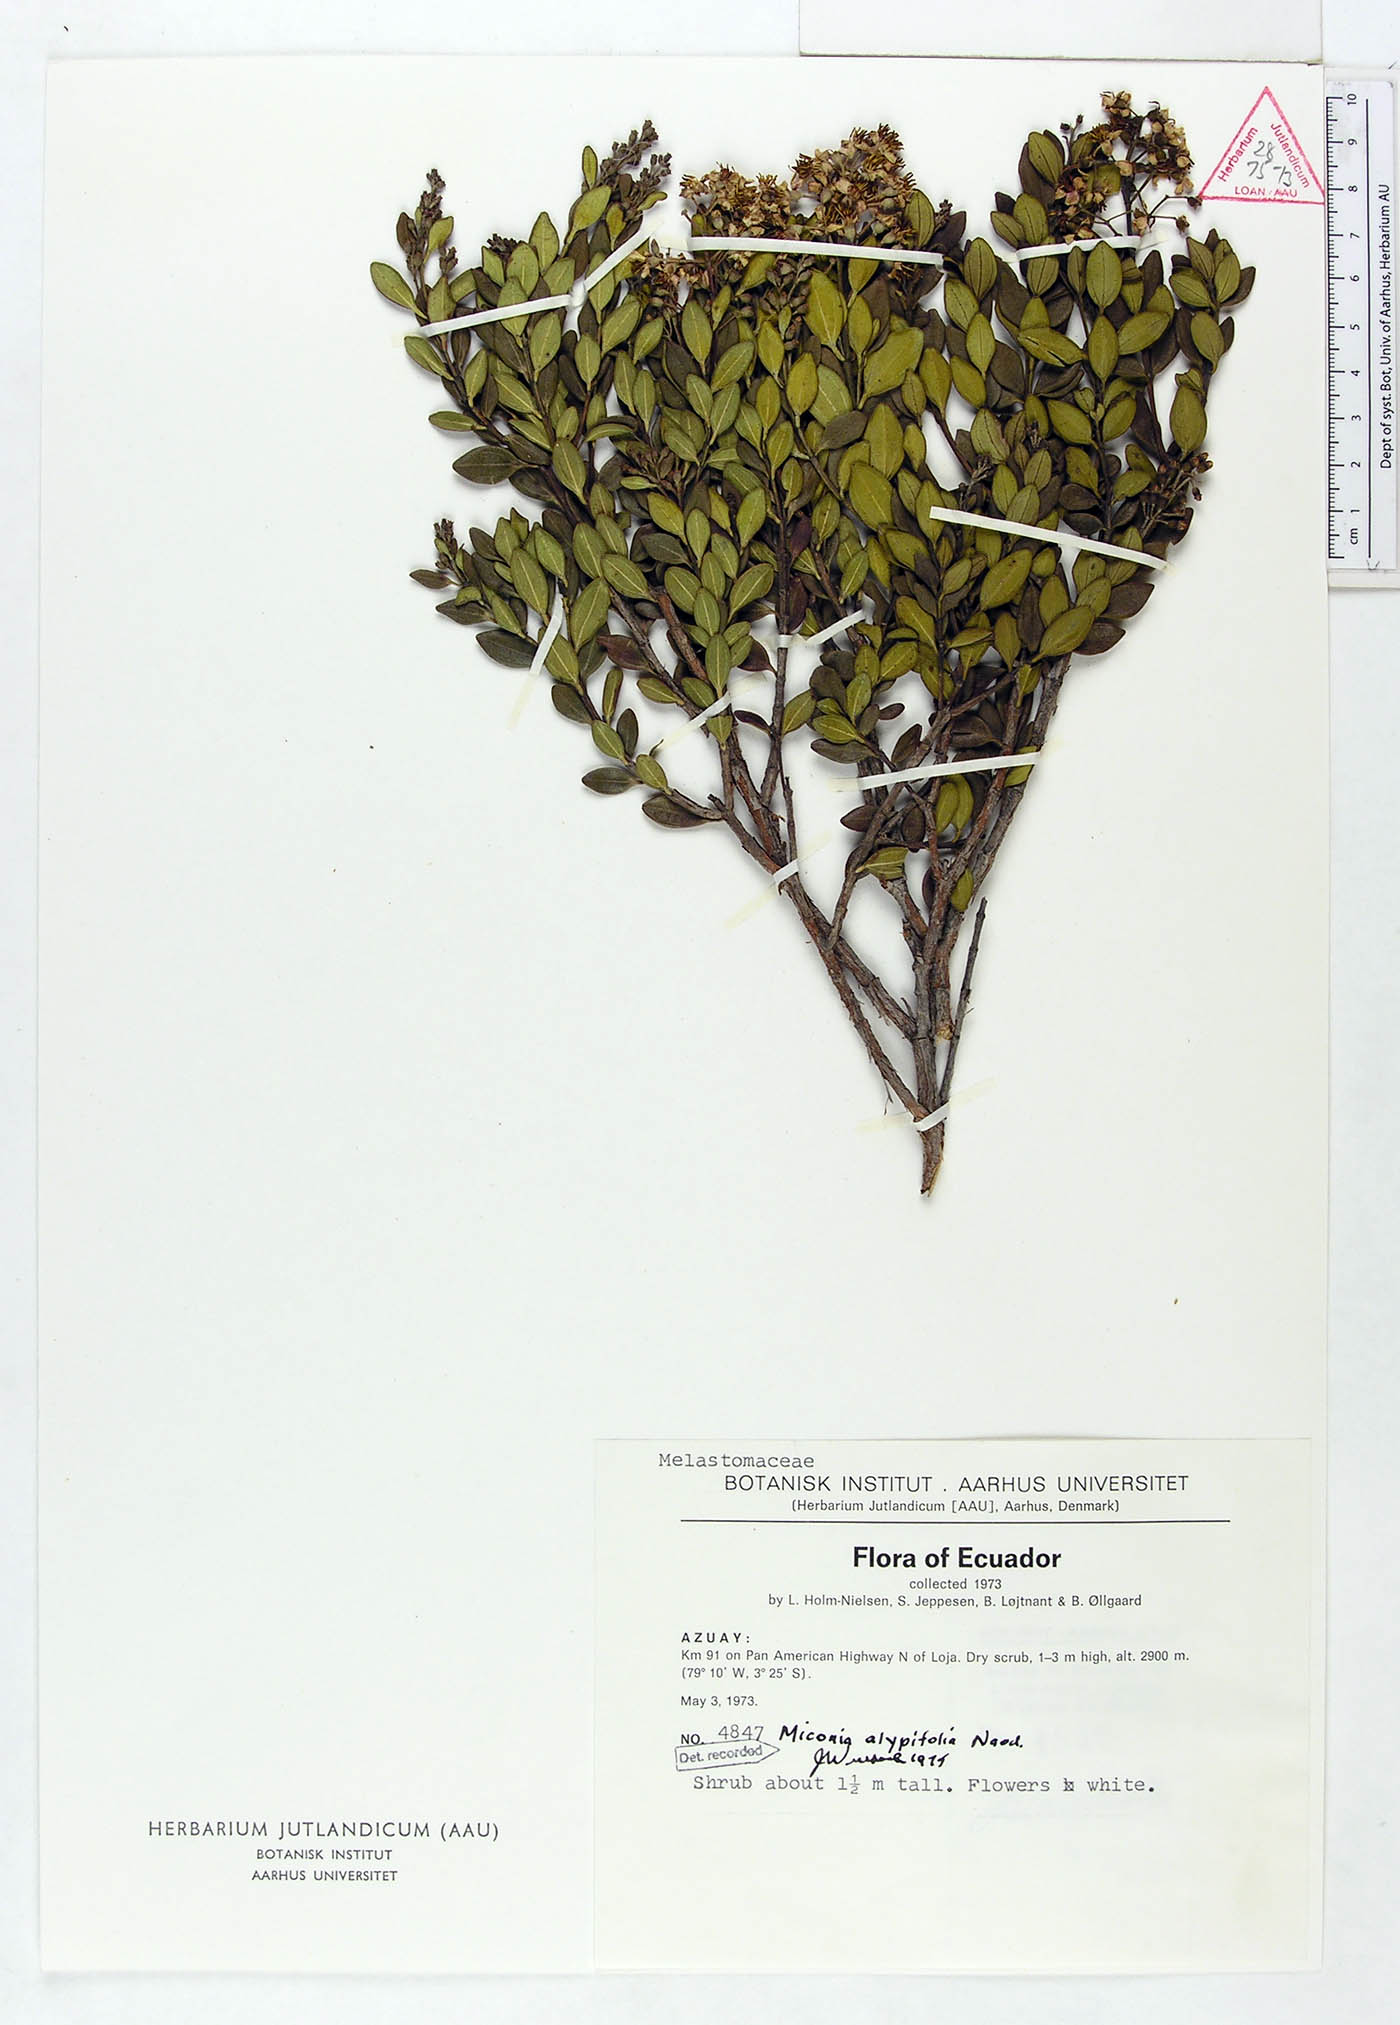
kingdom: Plantae
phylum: Tracheophyta
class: Magnoliopsida
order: Myrtales
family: Melastomataceae
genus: Miconia
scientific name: Miconia alypifolia
